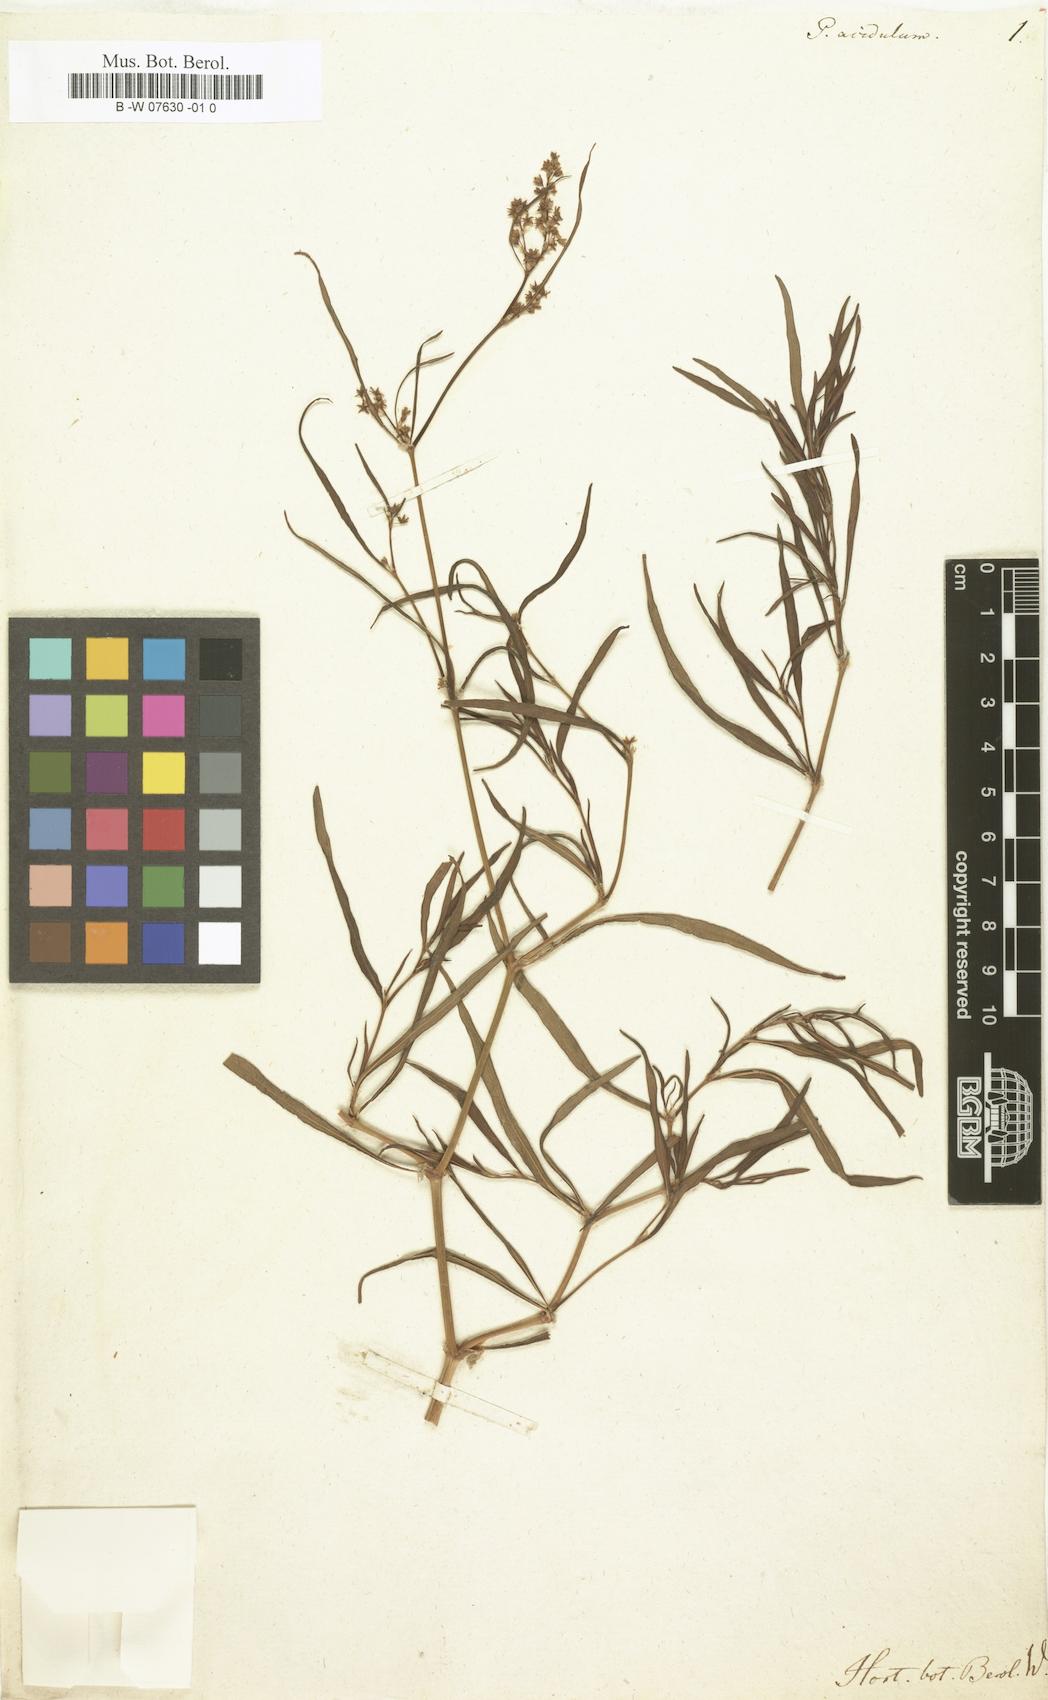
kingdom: Plantae
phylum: Tracheophyta
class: Magnoliopsida
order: Caryophyllales
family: Polygonaceae
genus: Persicaria
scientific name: Persicaria angustifolia
